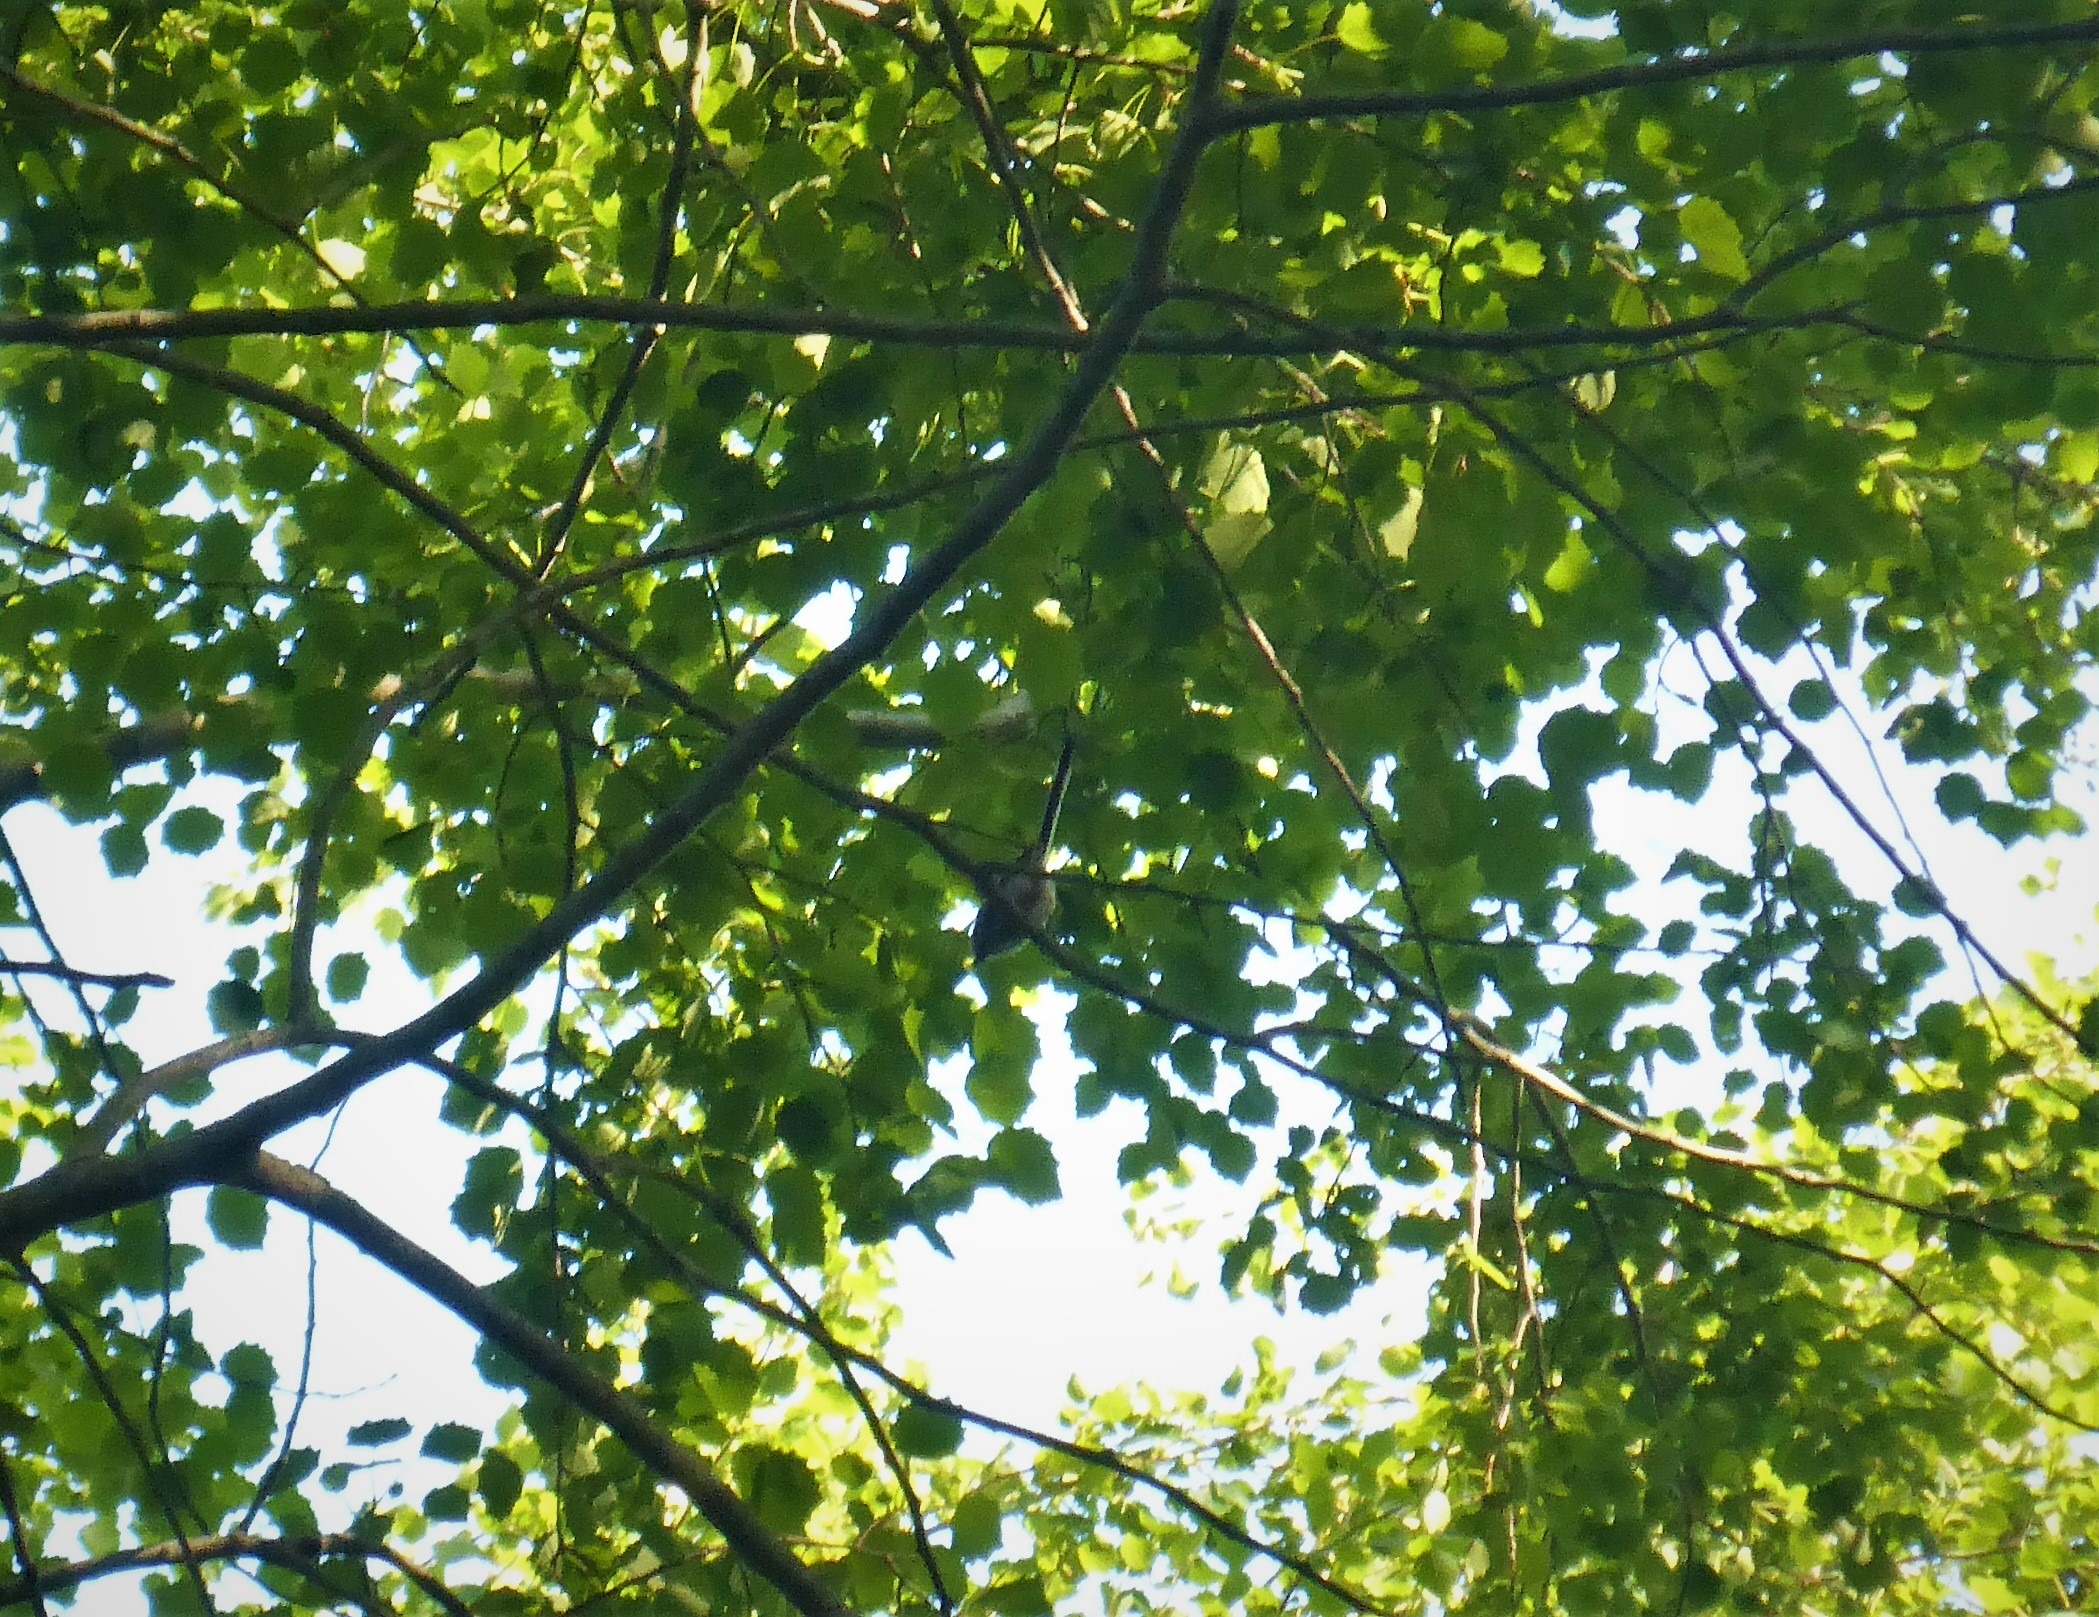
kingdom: Animalia
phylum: Chordata
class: Aves
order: Passeriformes
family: Aegithalidae
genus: Aegithalos
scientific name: Aegithalos caudatus
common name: Halemejse
